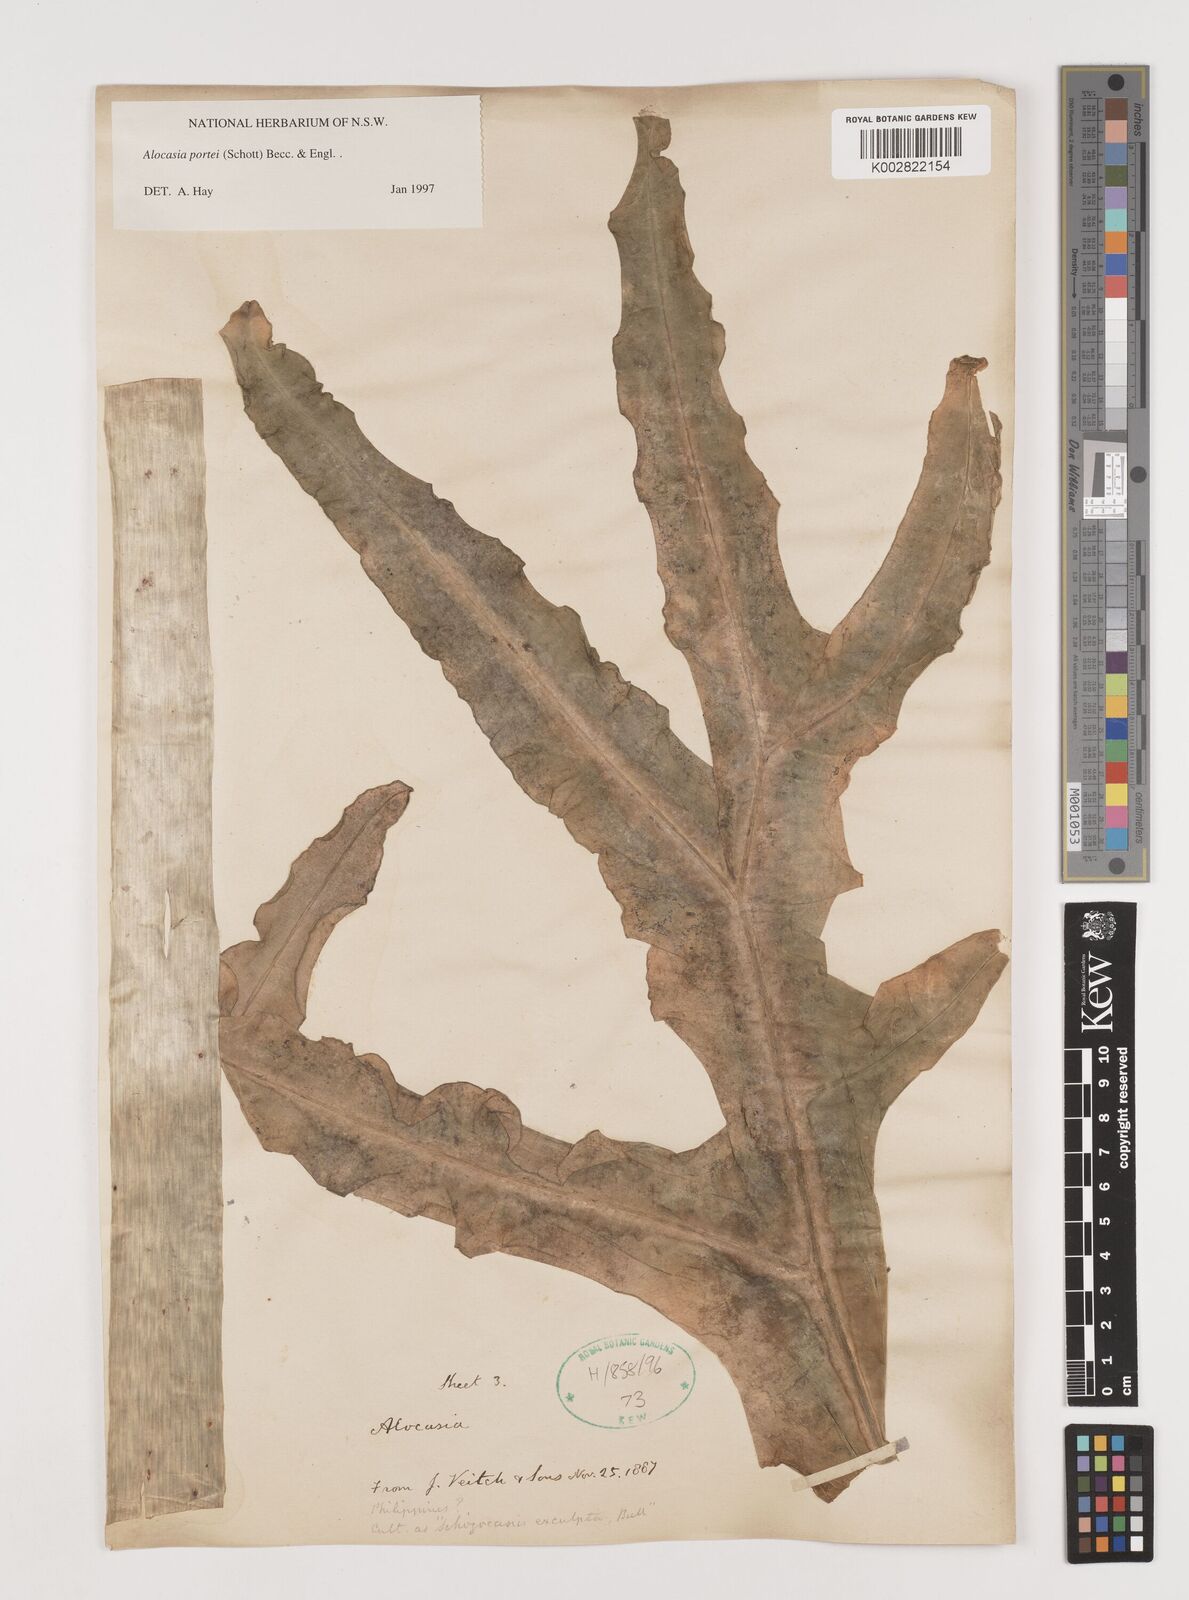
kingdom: Plantae
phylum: Tracheophyta
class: Liliopsida
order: Alismatales
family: Araceae
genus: Alocasia
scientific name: Alocasia portei
